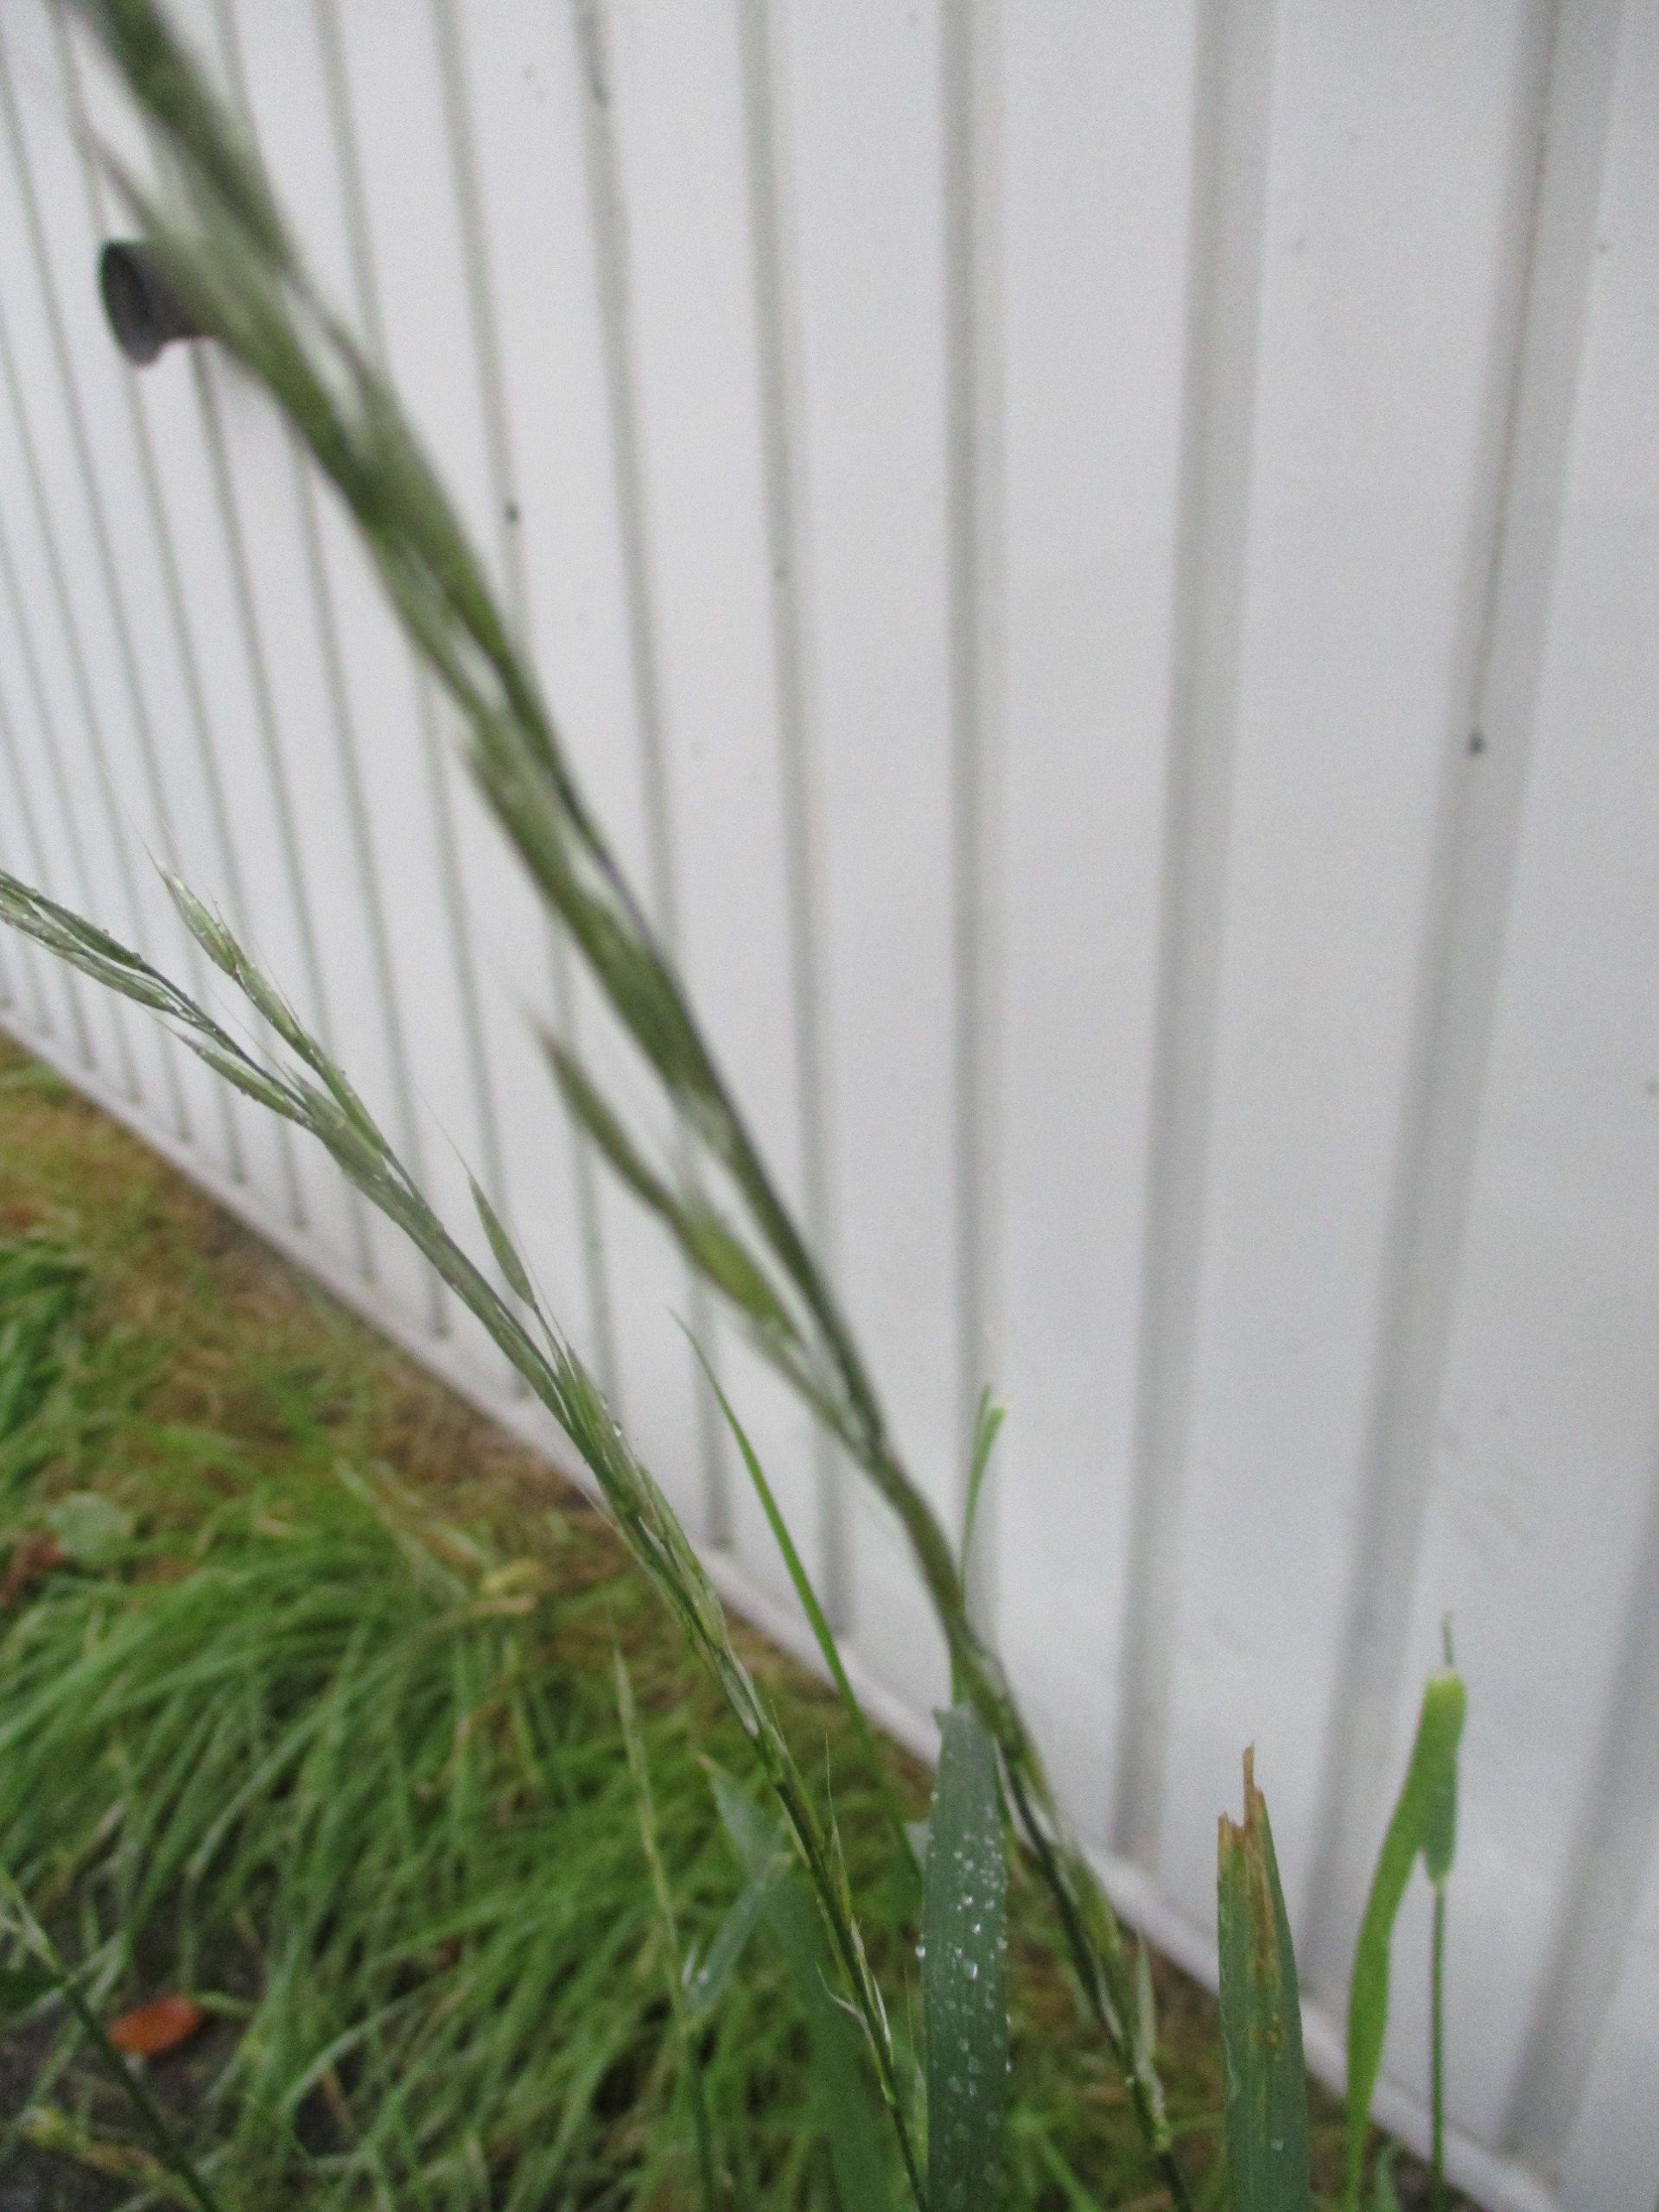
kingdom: Plantae
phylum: Tracheophyta
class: Liliopsida
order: Poales
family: Poaceae
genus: Arrhenatherum
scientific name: Arrhenatherum elatius
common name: Draphavre
